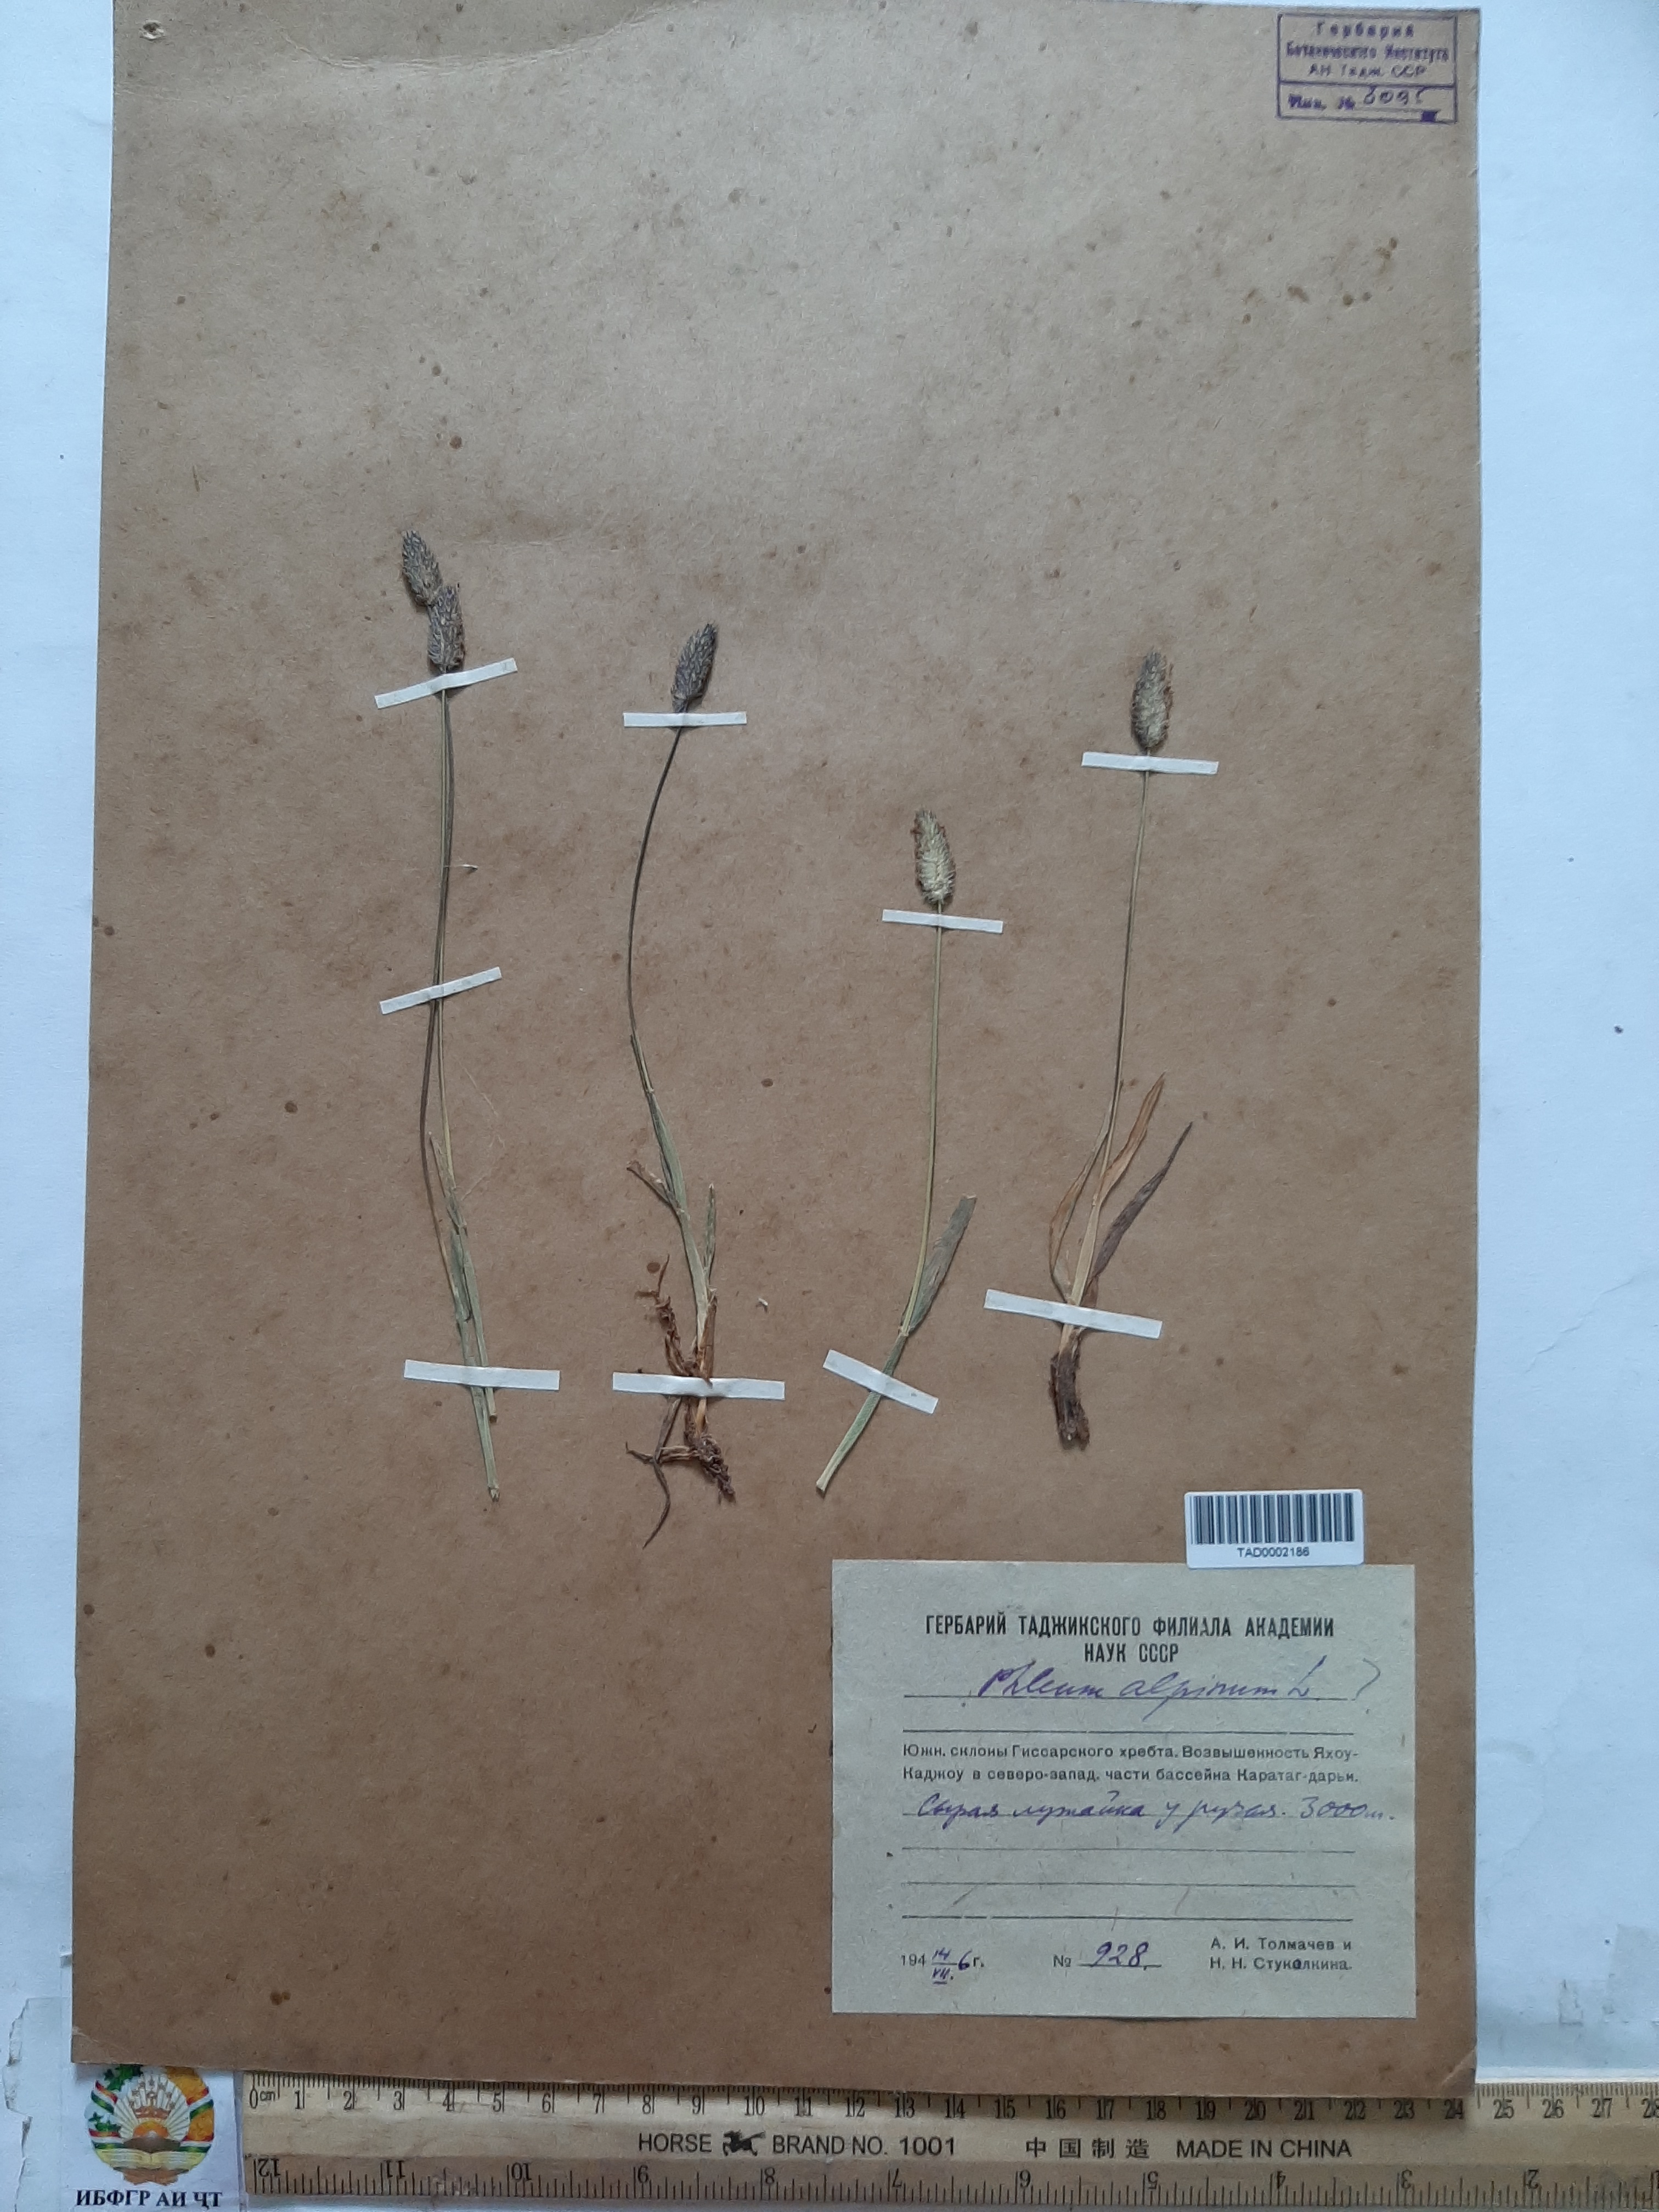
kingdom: Plantae
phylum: Tracheophyta
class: Liliopsida
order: Poales
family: Poaceae
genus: Phleum
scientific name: Phleum alpinum
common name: Alpine cat's-tail
